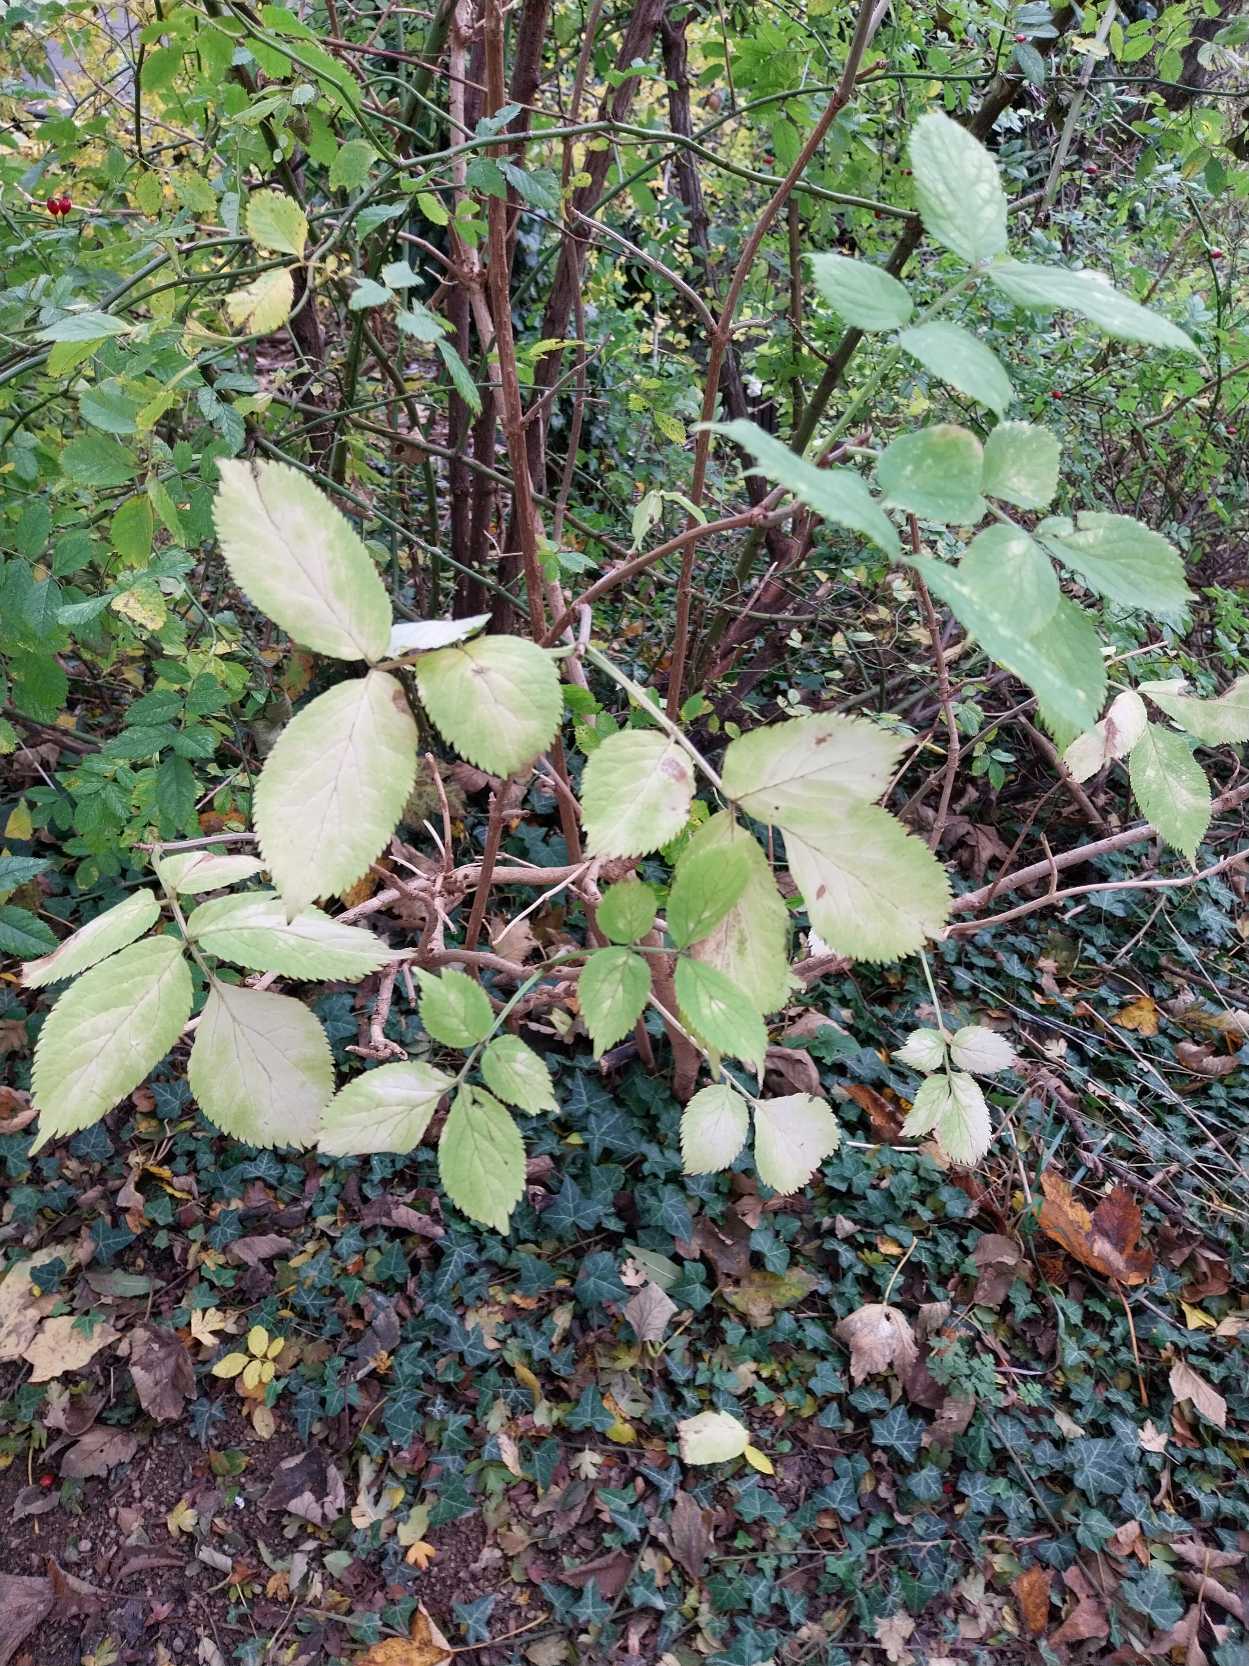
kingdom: Plantae
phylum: Tracheophyta
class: Magnoliopsida
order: Dipsacales
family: Viburnaceae
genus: Sambucus
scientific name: Sambucus nigra
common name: Almindelig hyld
